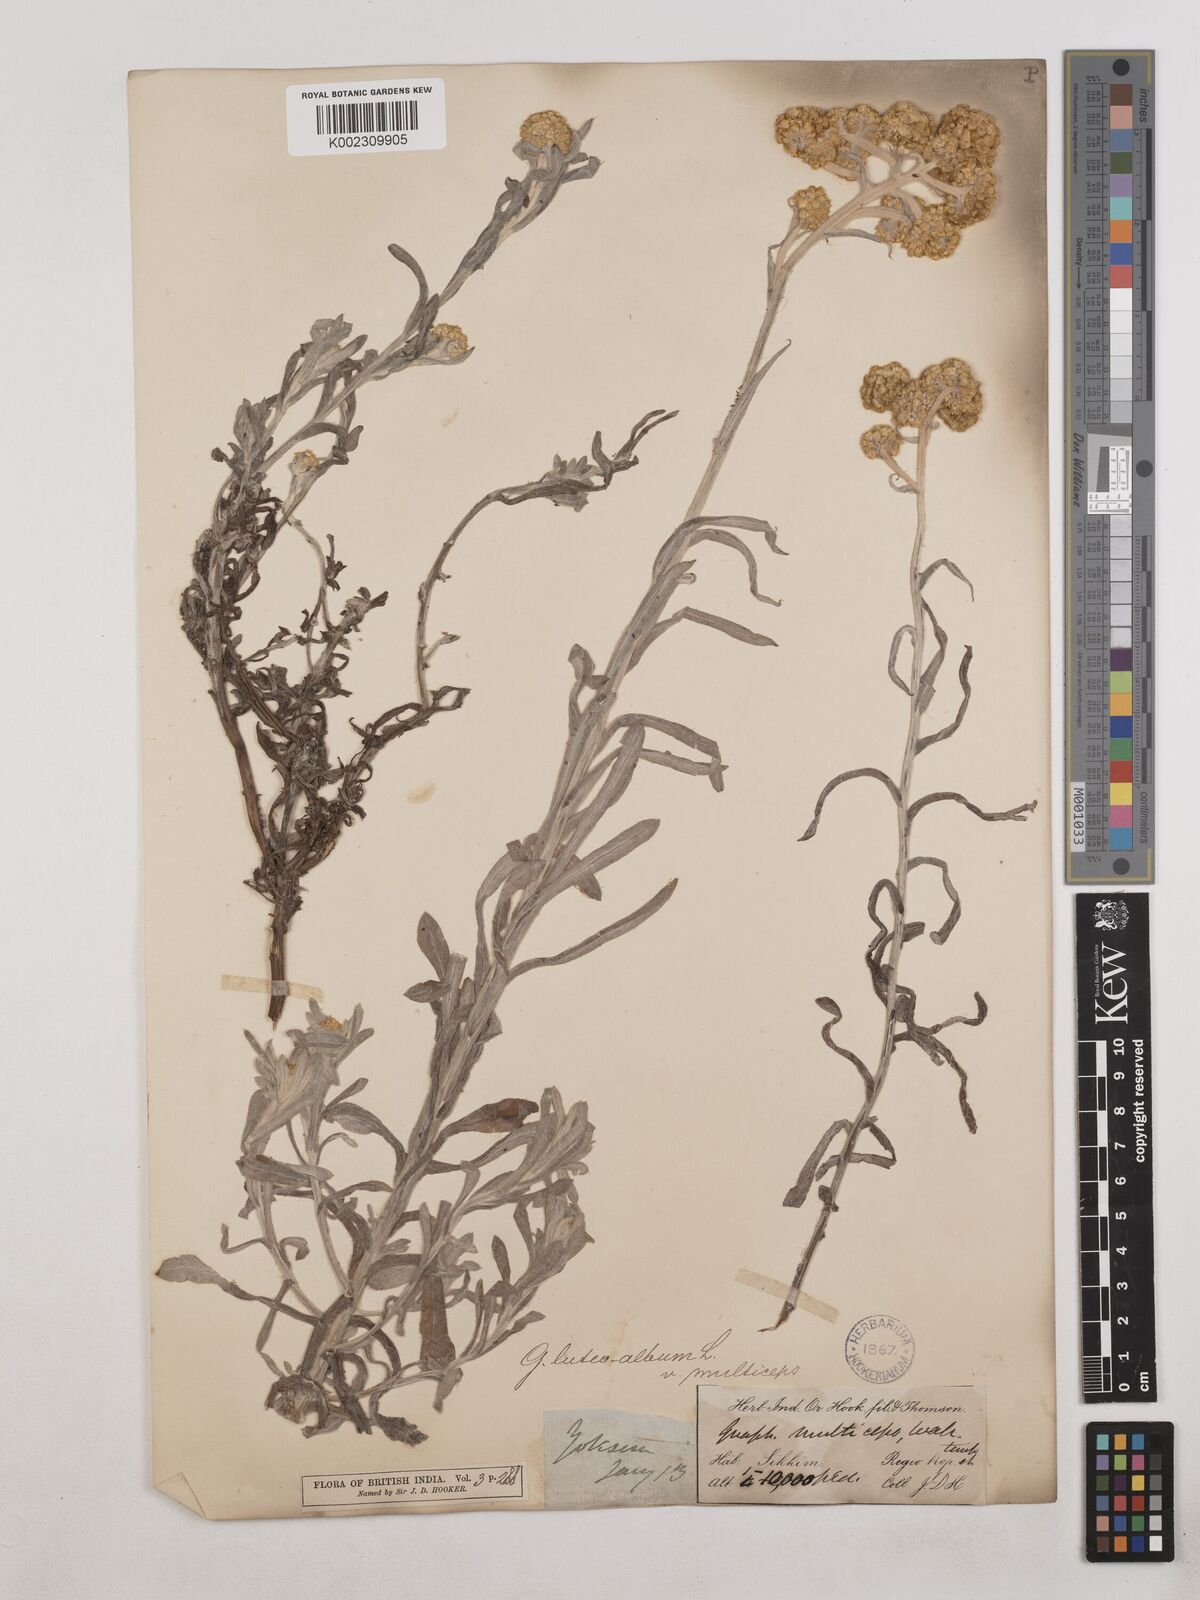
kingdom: Plantae
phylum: Tracheophyta
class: Magnoliopsida
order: Asterales
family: Asteraceae
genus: Helichrysum
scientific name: Helichrysum luteoalbum
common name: Daisy
